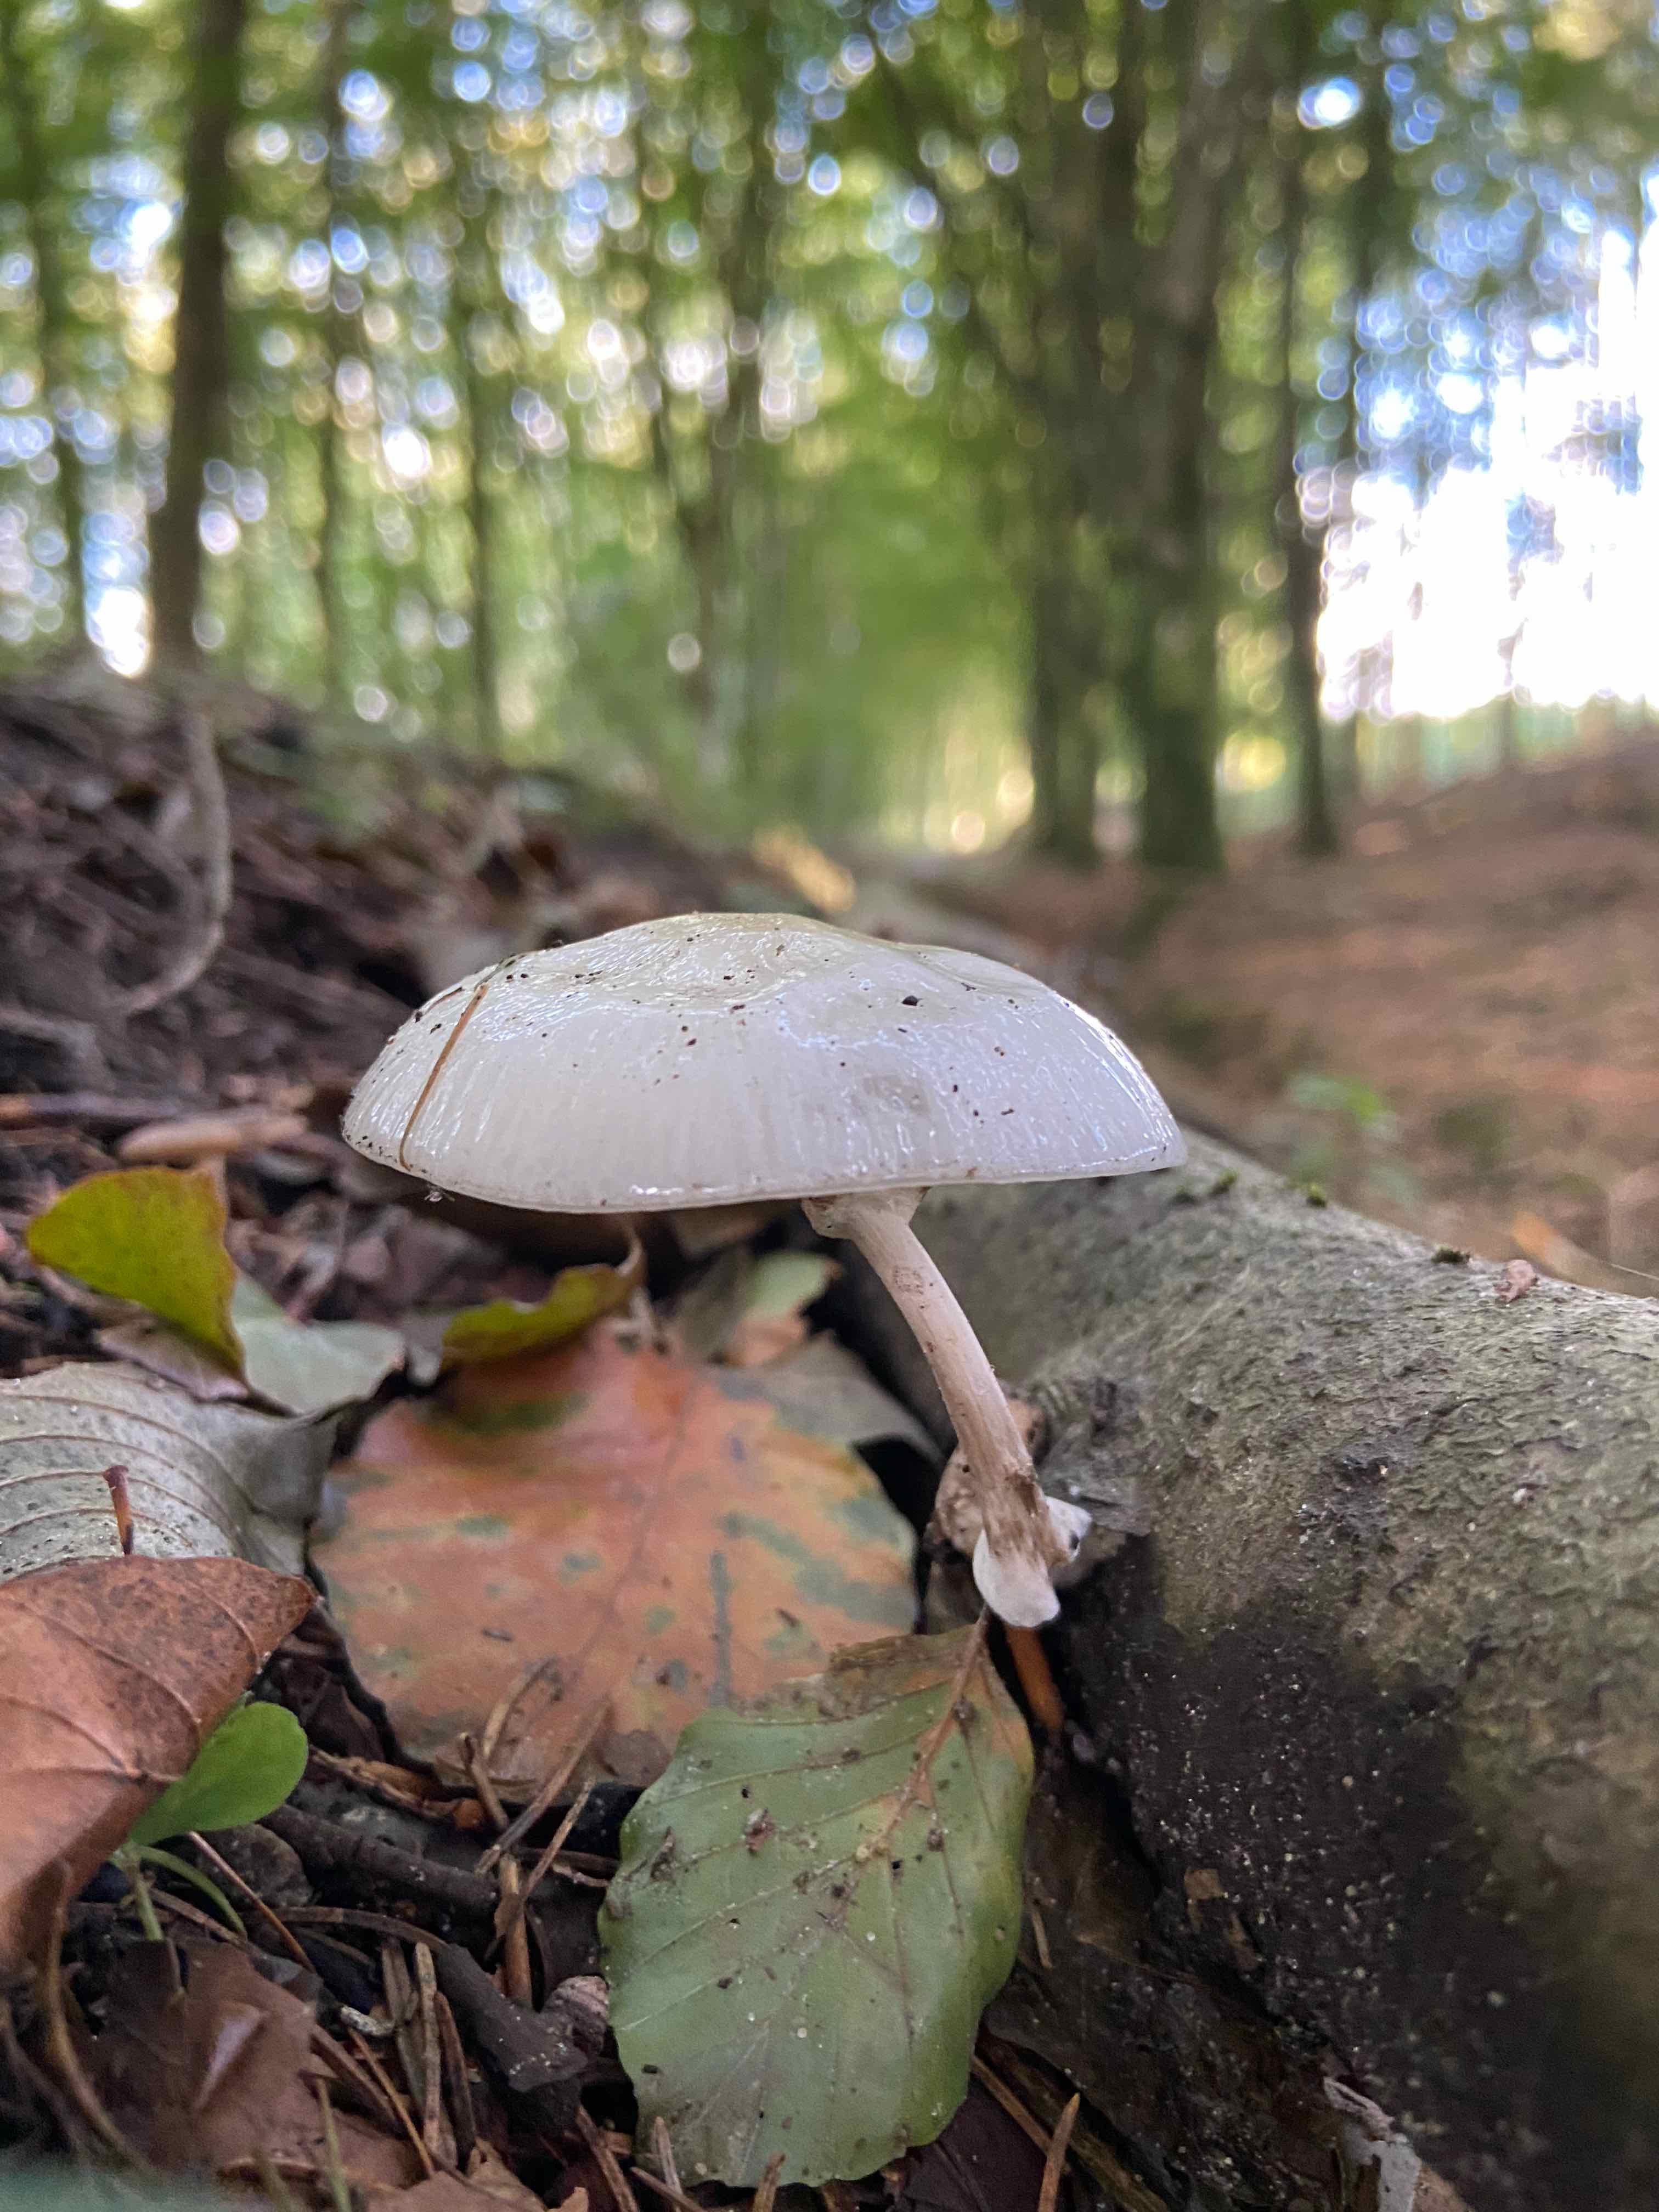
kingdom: Fungi
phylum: Basidiomycota
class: Agaricomycetes
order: Agaricales
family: Physalacriaceae
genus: Mucidula
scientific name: Mucidula mucida
